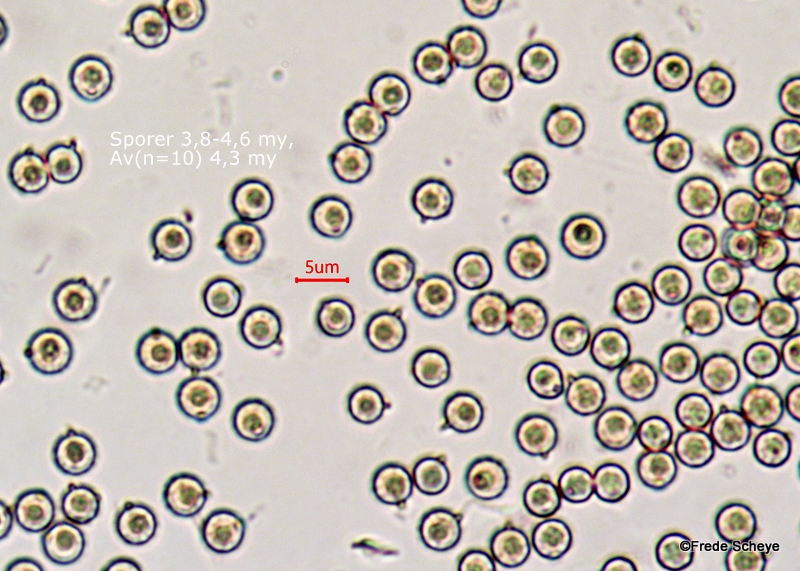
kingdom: Fungi
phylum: Basidiomycota
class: Agaricomycetes
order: Agaricales
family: Lycoperdaceae
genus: Lycoperdon
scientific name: Lycoperdon lividum
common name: mark-støvbold
